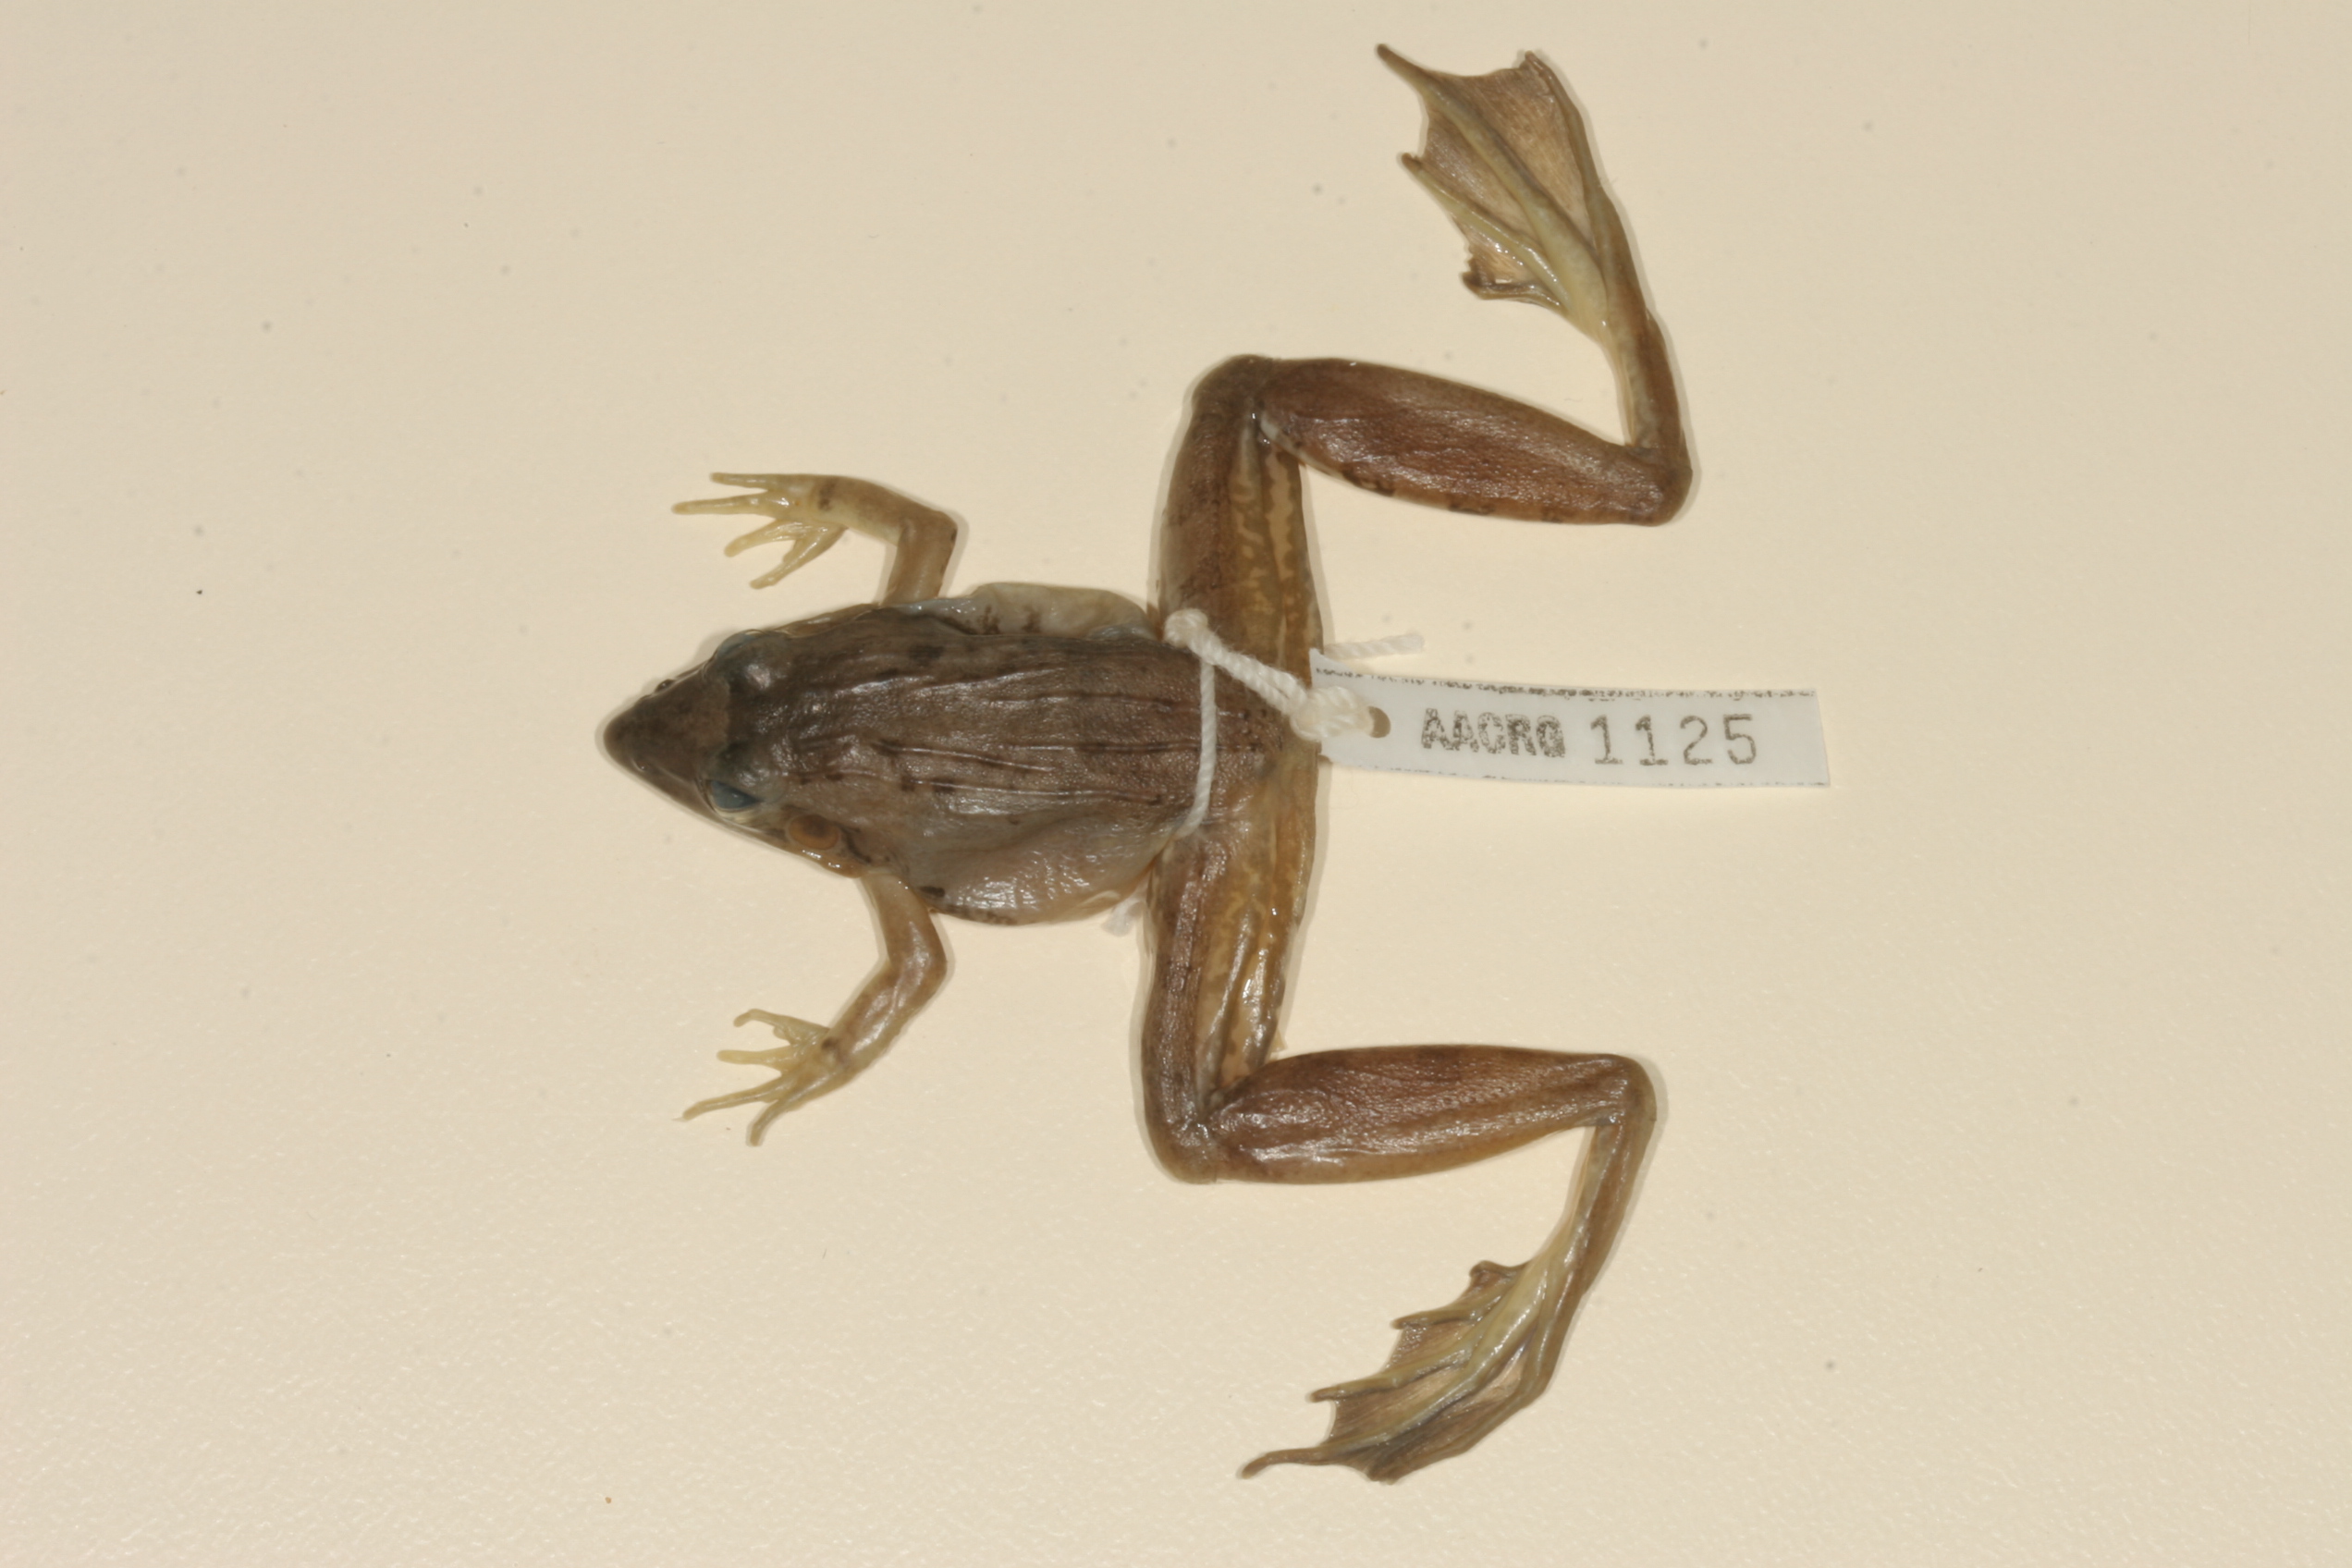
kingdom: Animalia
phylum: Chordata
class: Amphibia
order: Anura
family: Ptychadenidae
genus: Ptychadena
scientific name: Ptychadena anchietae
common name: Anchieta's ridged frog
